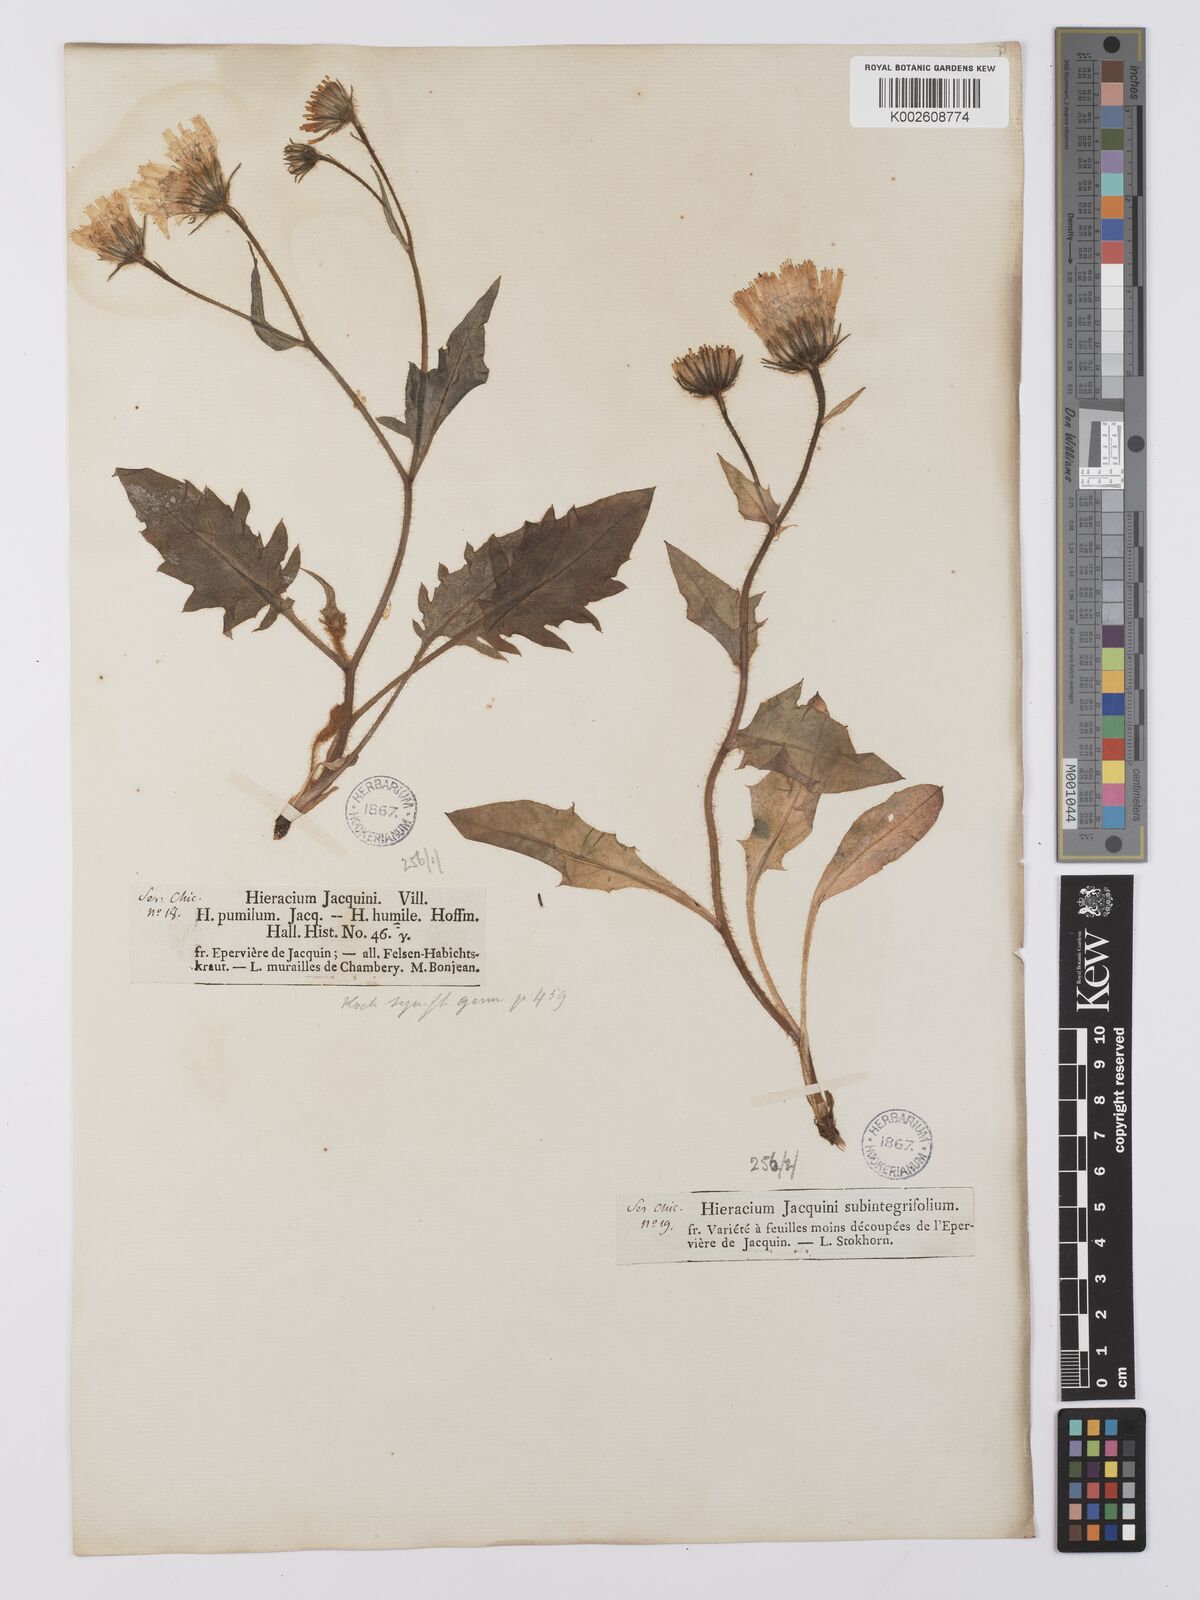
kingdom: Plantae
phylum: Tracheophyta
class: Magnoliopsida
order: Asterales
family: Asteraceae
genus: Hieracium
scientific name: Hieracium humile
